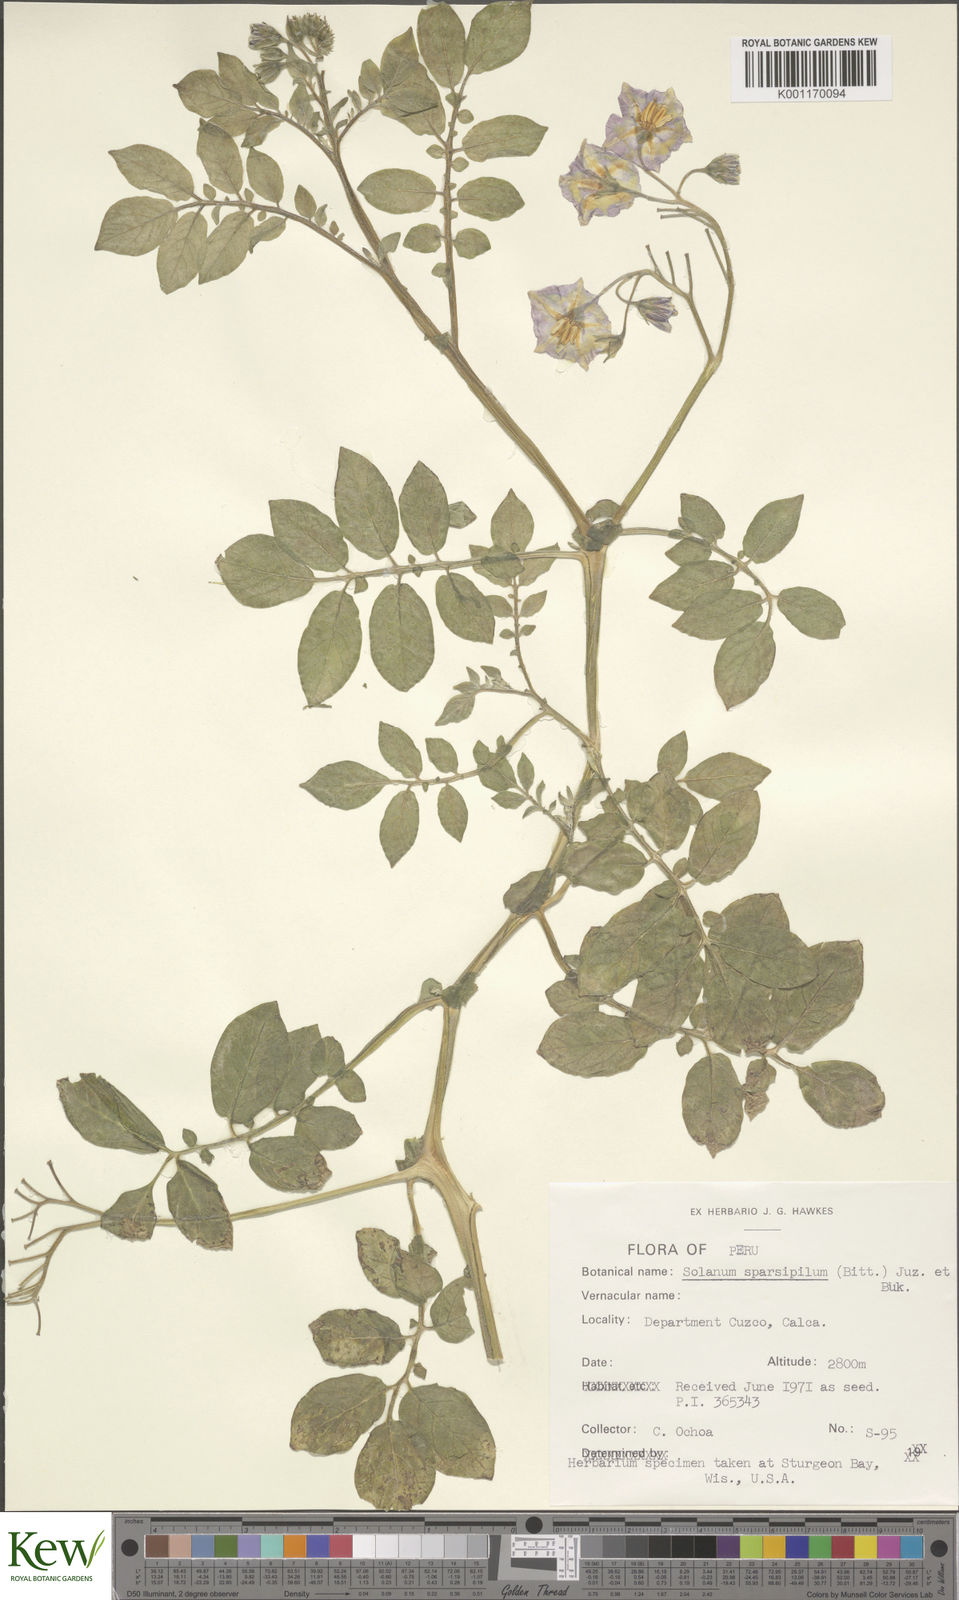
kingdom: Plantae
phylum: Tracheophyta
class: Magnoliopsida
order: Solanales
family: Solanaceae
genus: Solanum
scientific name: Solanum brevicaule
